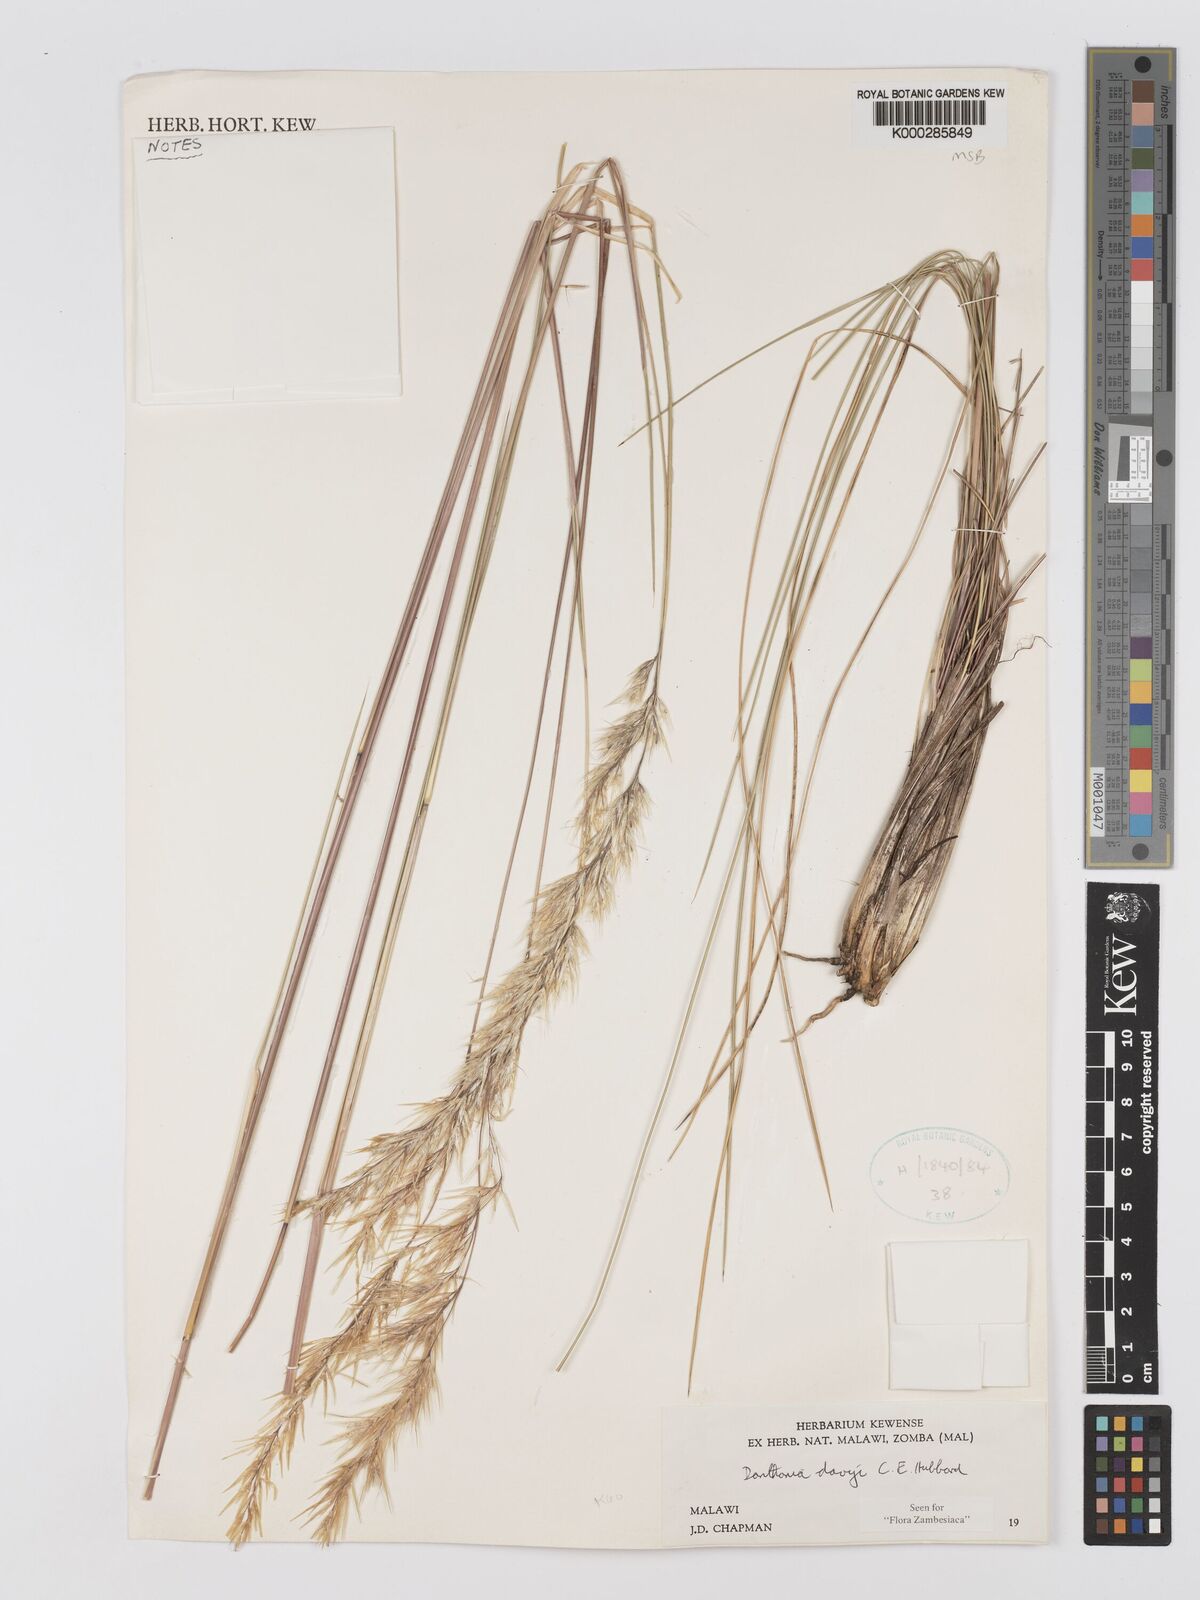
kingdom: Plantae
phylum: Tracheophyta
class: Liliopsida
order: Poales
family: Poaceae
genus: Merxmuellera
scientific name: Merxmuellera davyi
